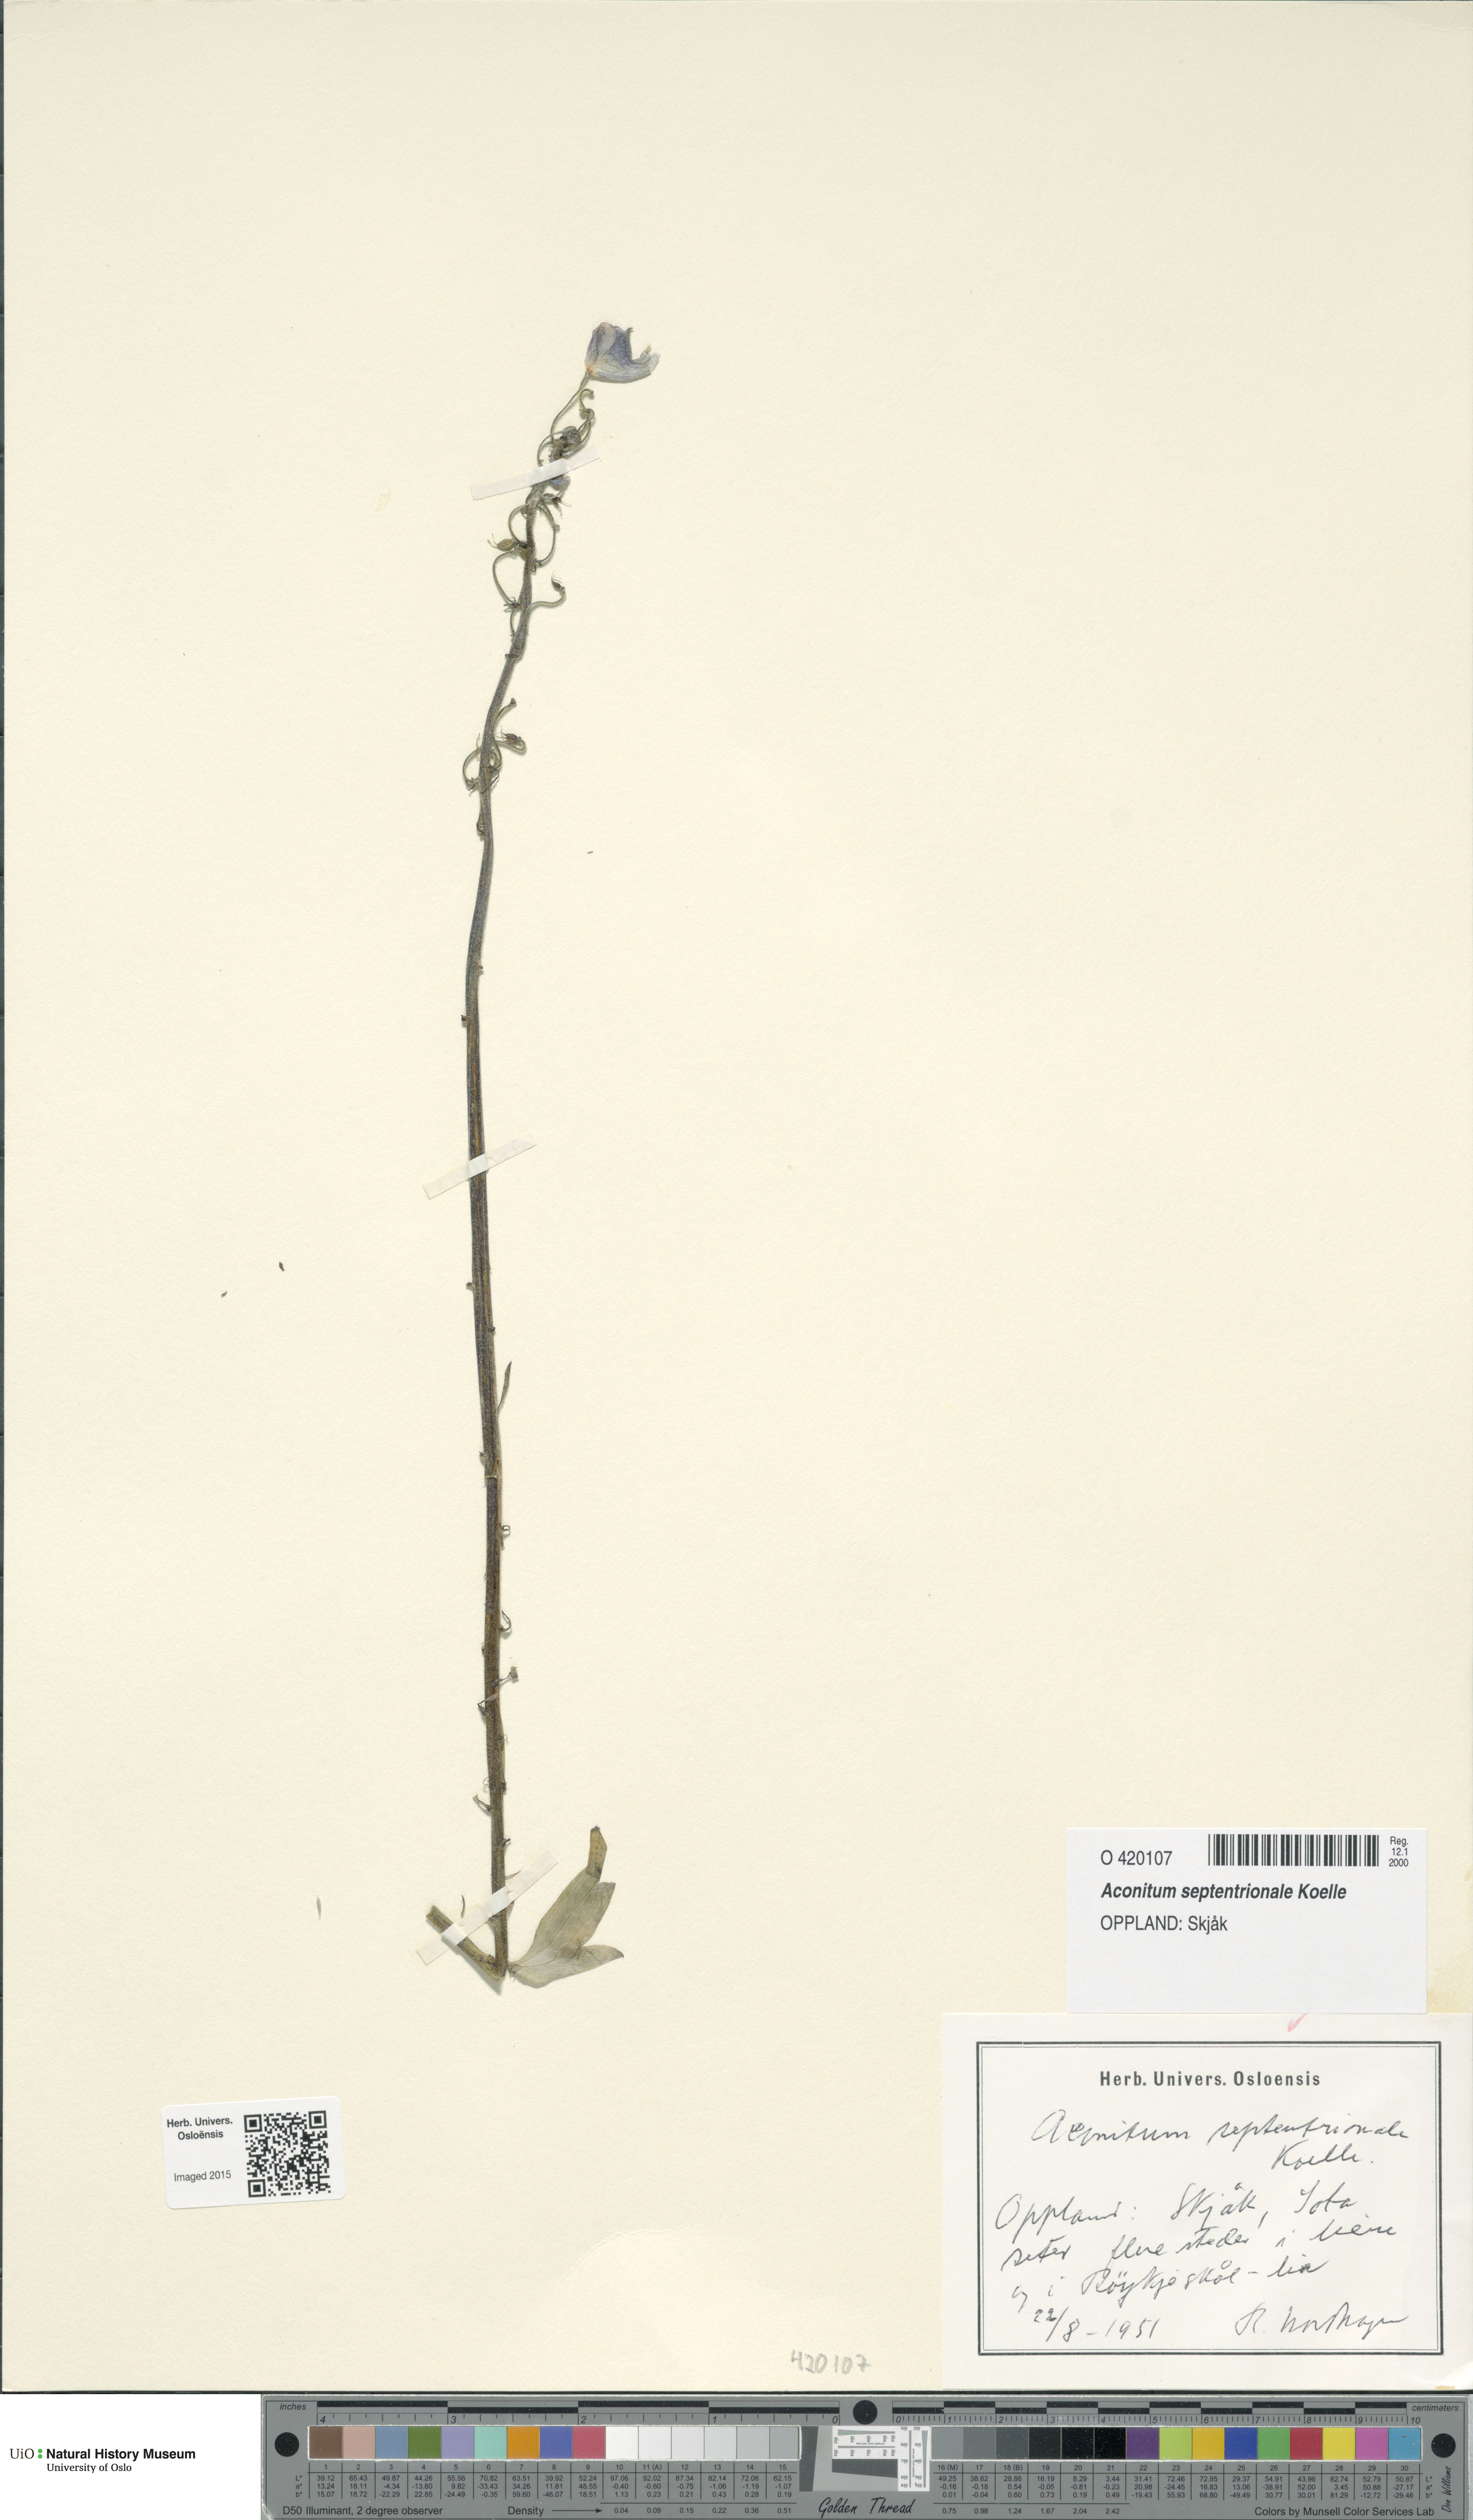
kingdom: Plantae
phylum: Tracheophyta
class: Magnoliopsida
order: Ranunculales
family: Ranunculaceae
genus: Aconitum
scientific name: Aconitum septentrionale
